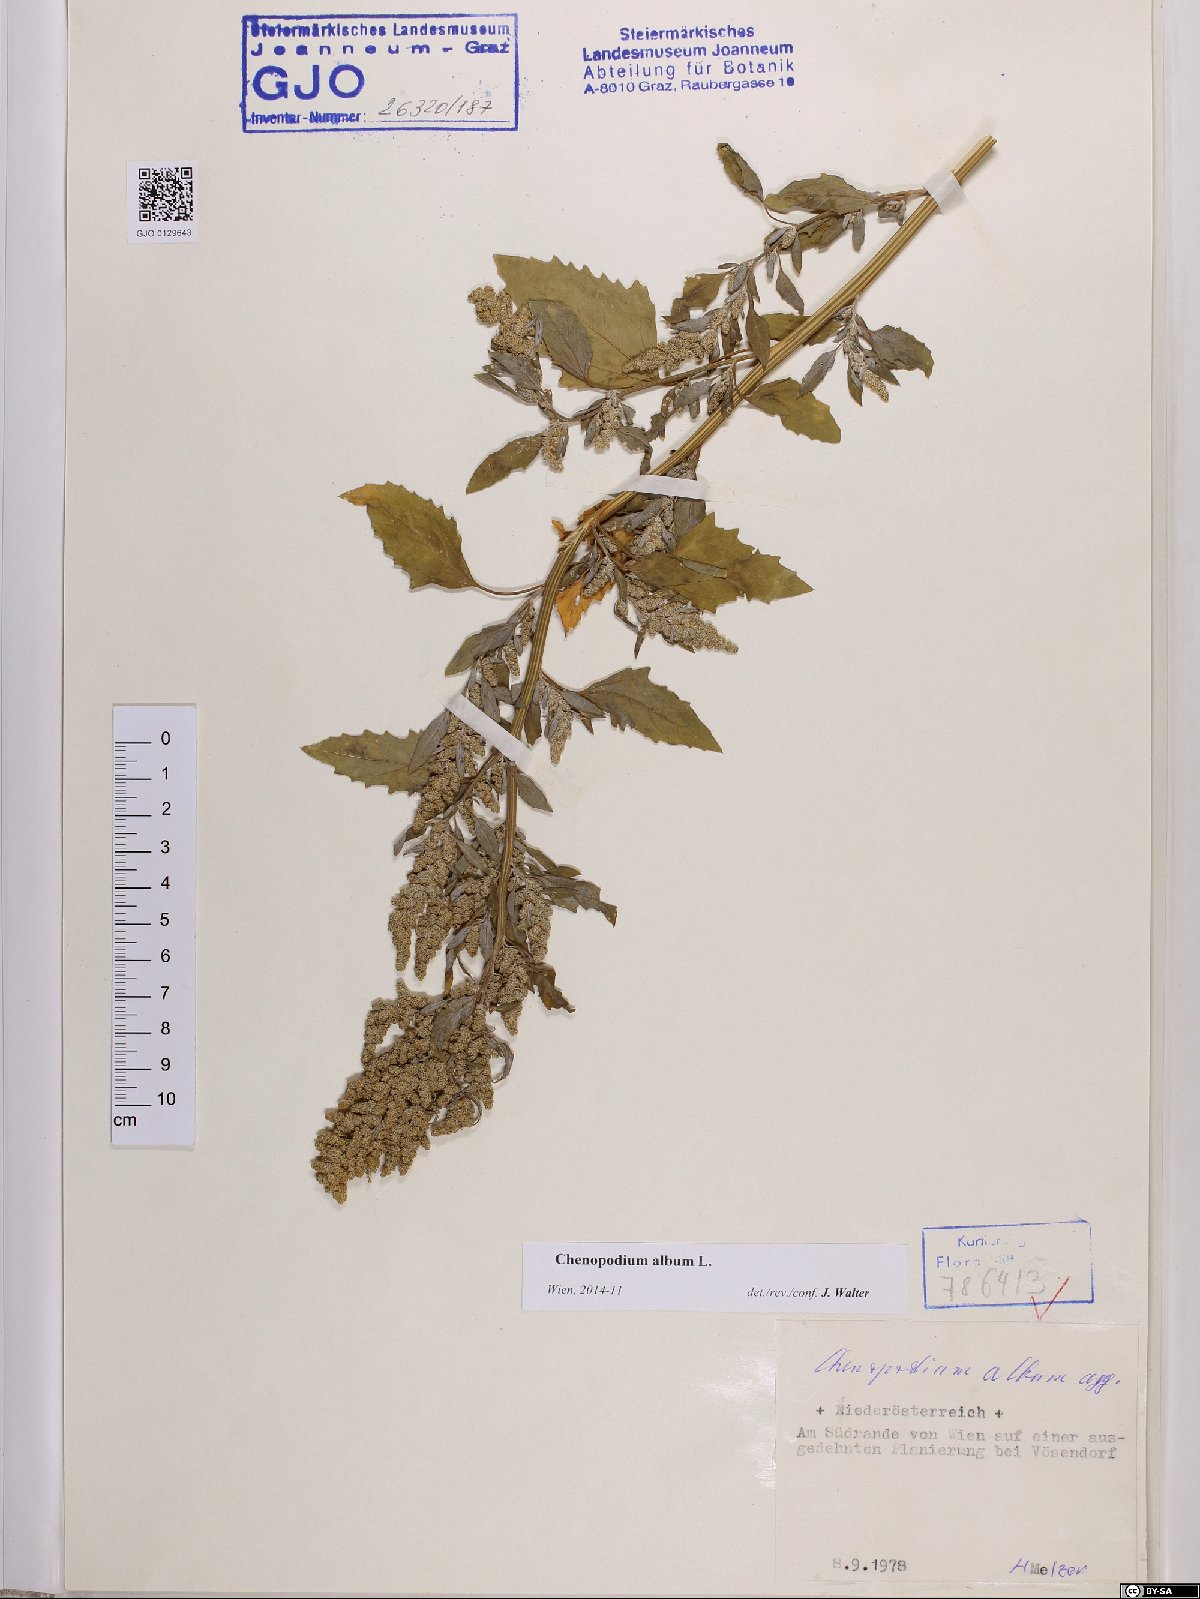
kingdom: Plantae
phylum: Tracheophyta
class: Magnoliopsida
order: Caryophyllales
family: Amaranthaceae
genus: Chenopodium
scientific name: Chenopodium album
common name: Fat-hen
